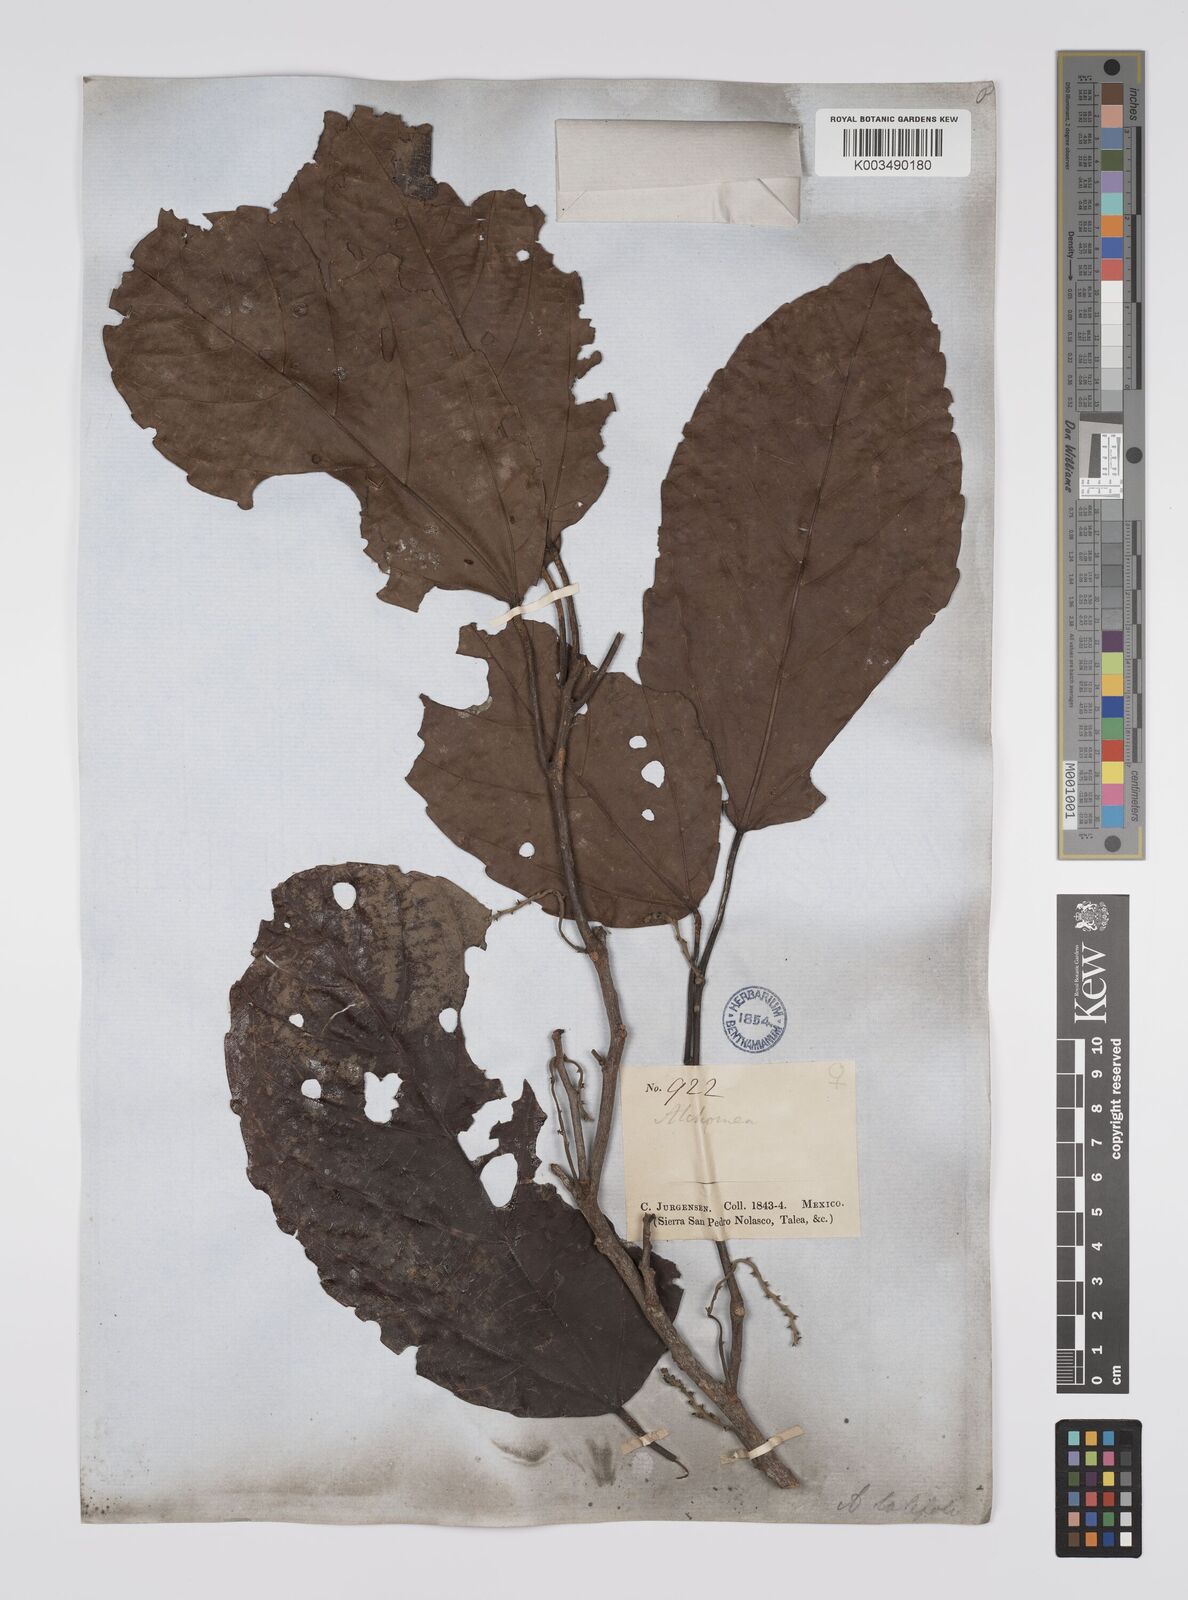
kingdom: Plantae
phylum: Tracheophyta
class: Magnoliopsida
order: Malpighiales
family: Euphorbiaceae
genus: Alchornea
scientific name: Alchornea latifolia
